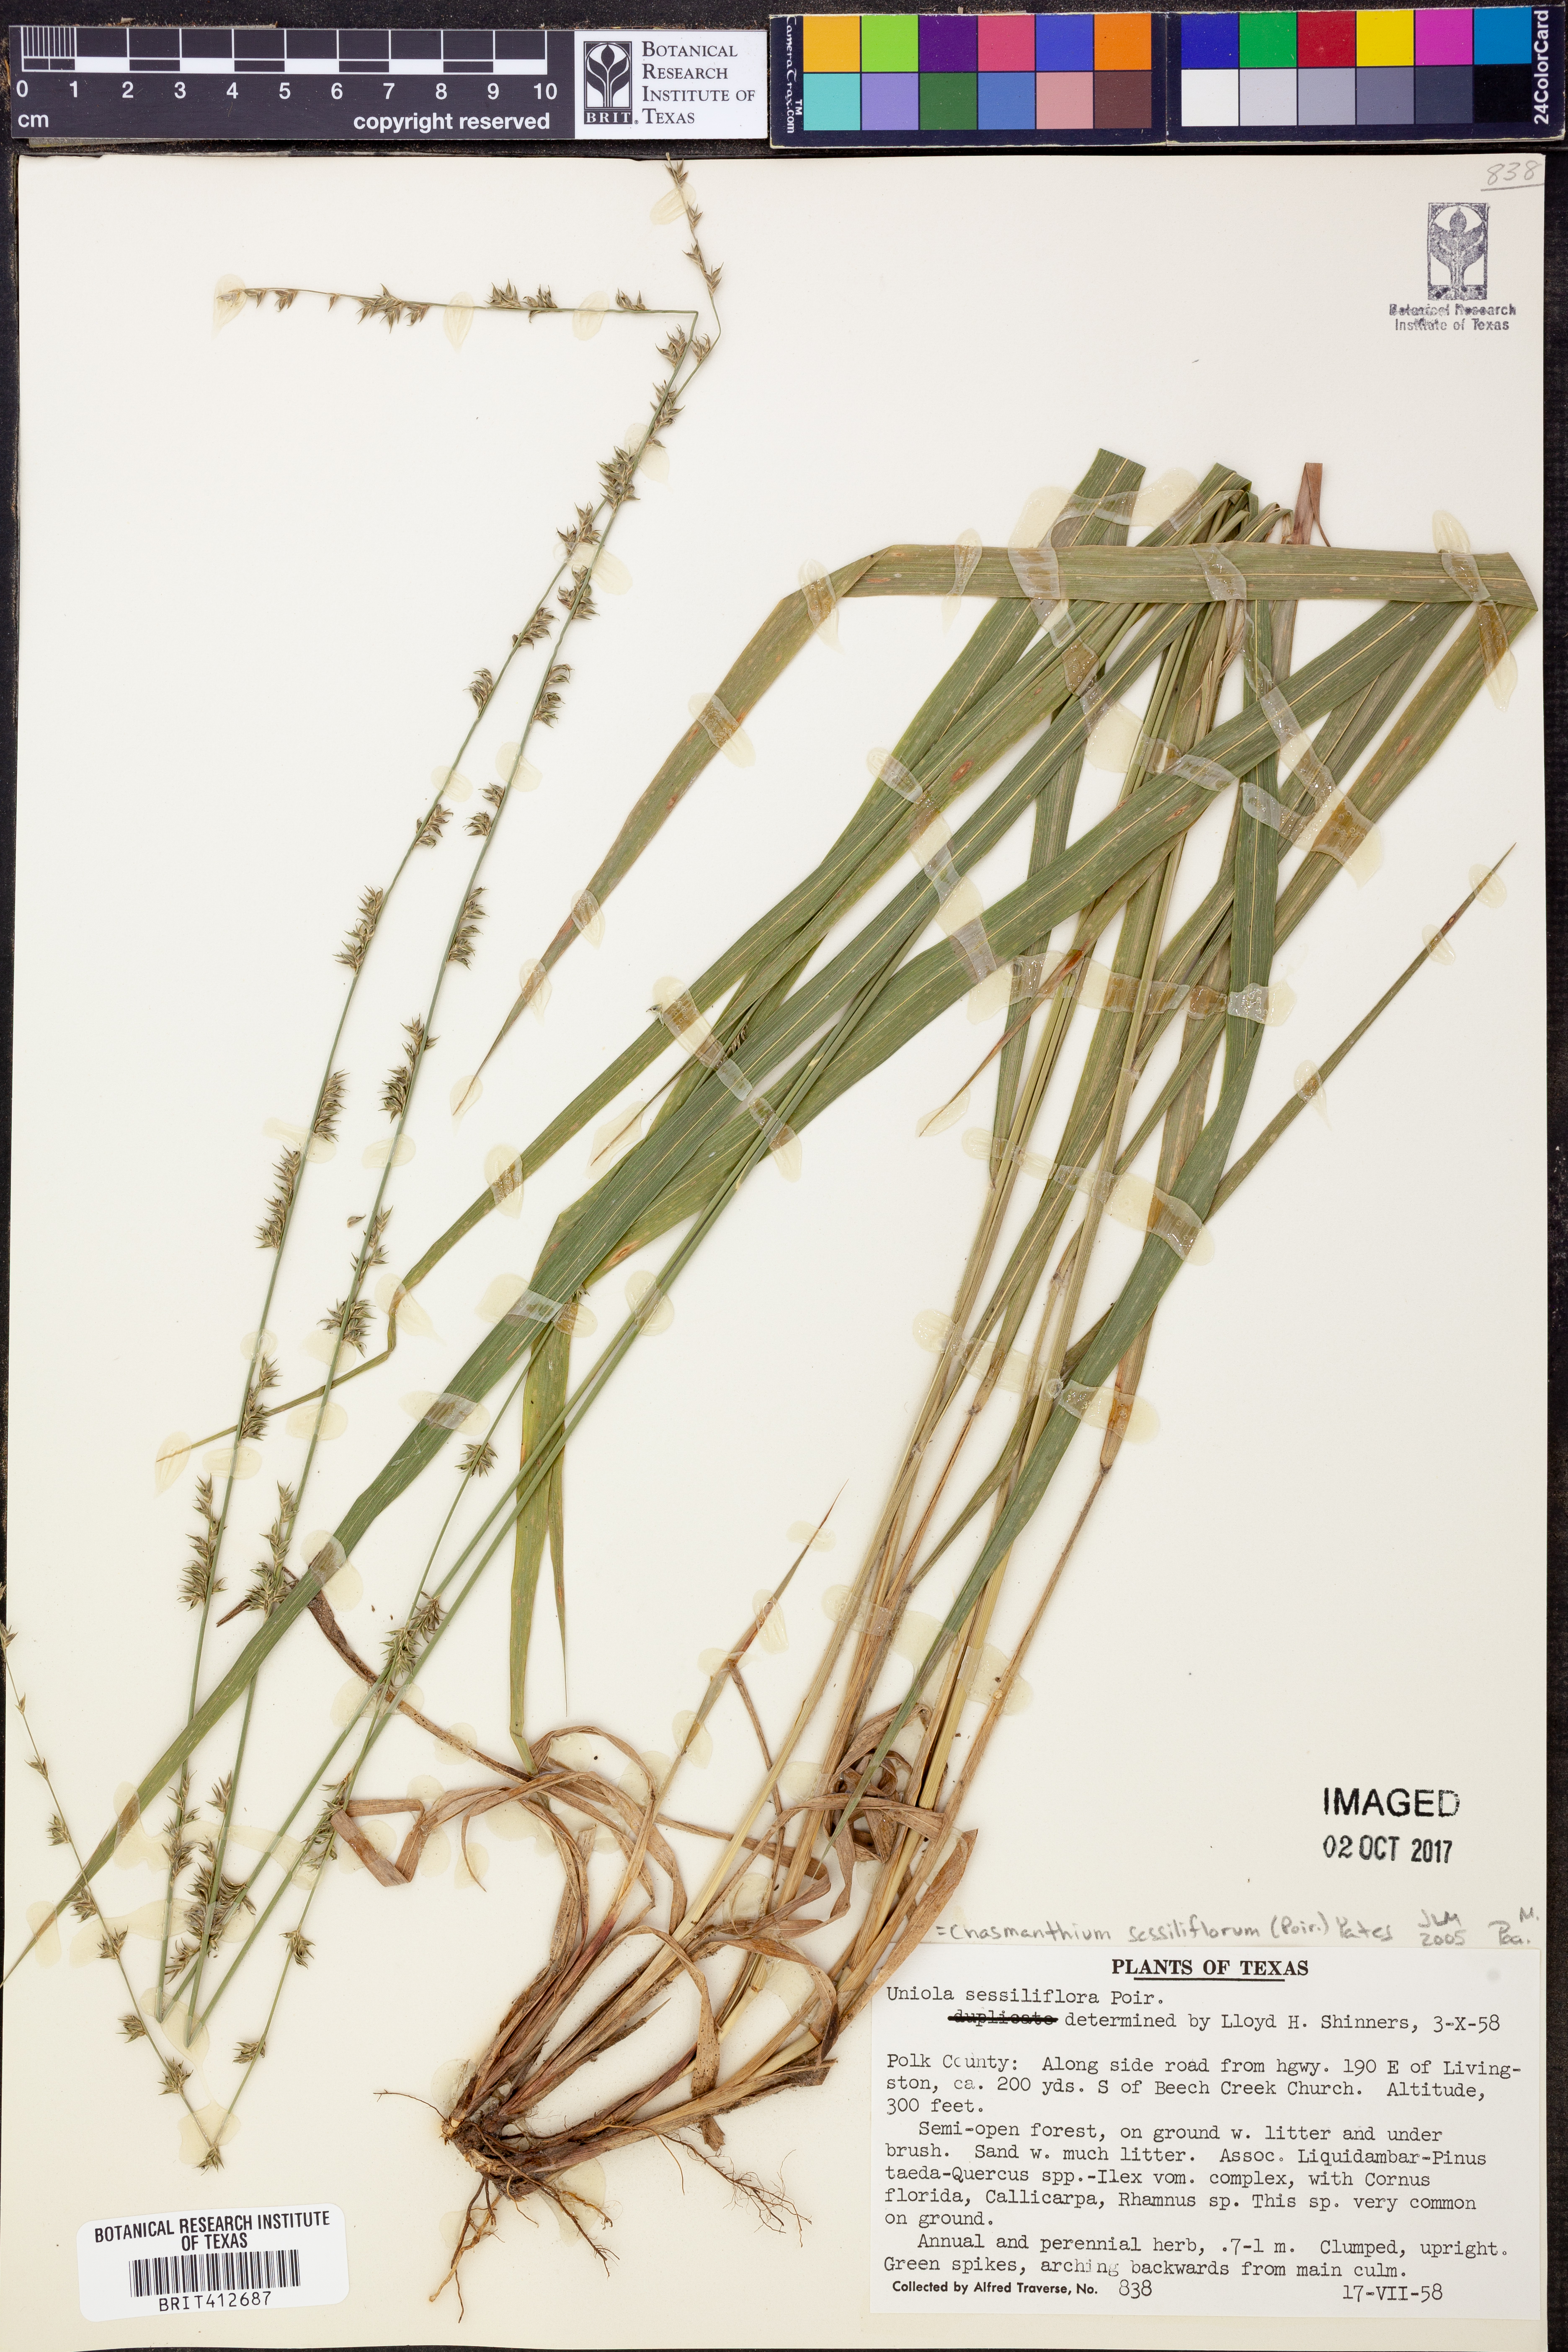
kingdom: Plantae
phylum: Tracheophyta
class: Liliopsida
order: Poales
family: Poaceae
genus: Chasmanthium
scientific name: Chasmanthium laxum
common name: Slender chasmanthium
